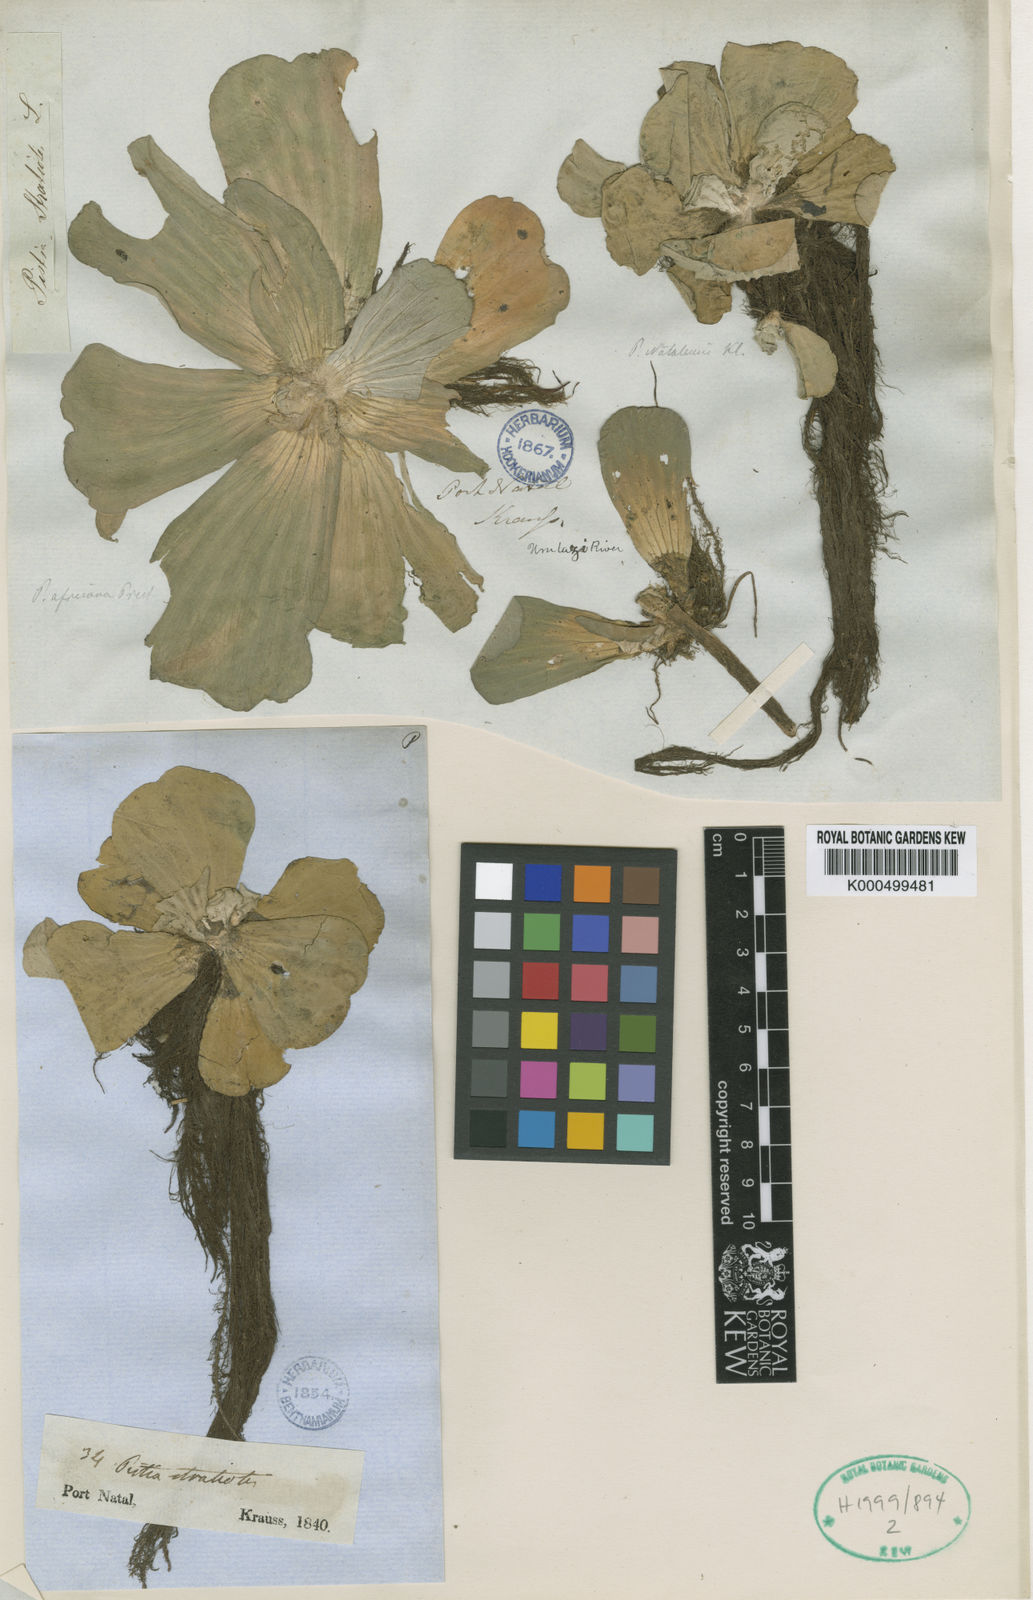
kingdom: Plantae
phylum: Tracheophyta
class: Liliopsida
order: Alismatales
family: Araceae
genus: Pistia
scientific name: Pistia stratiotes
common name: Water lettuce
